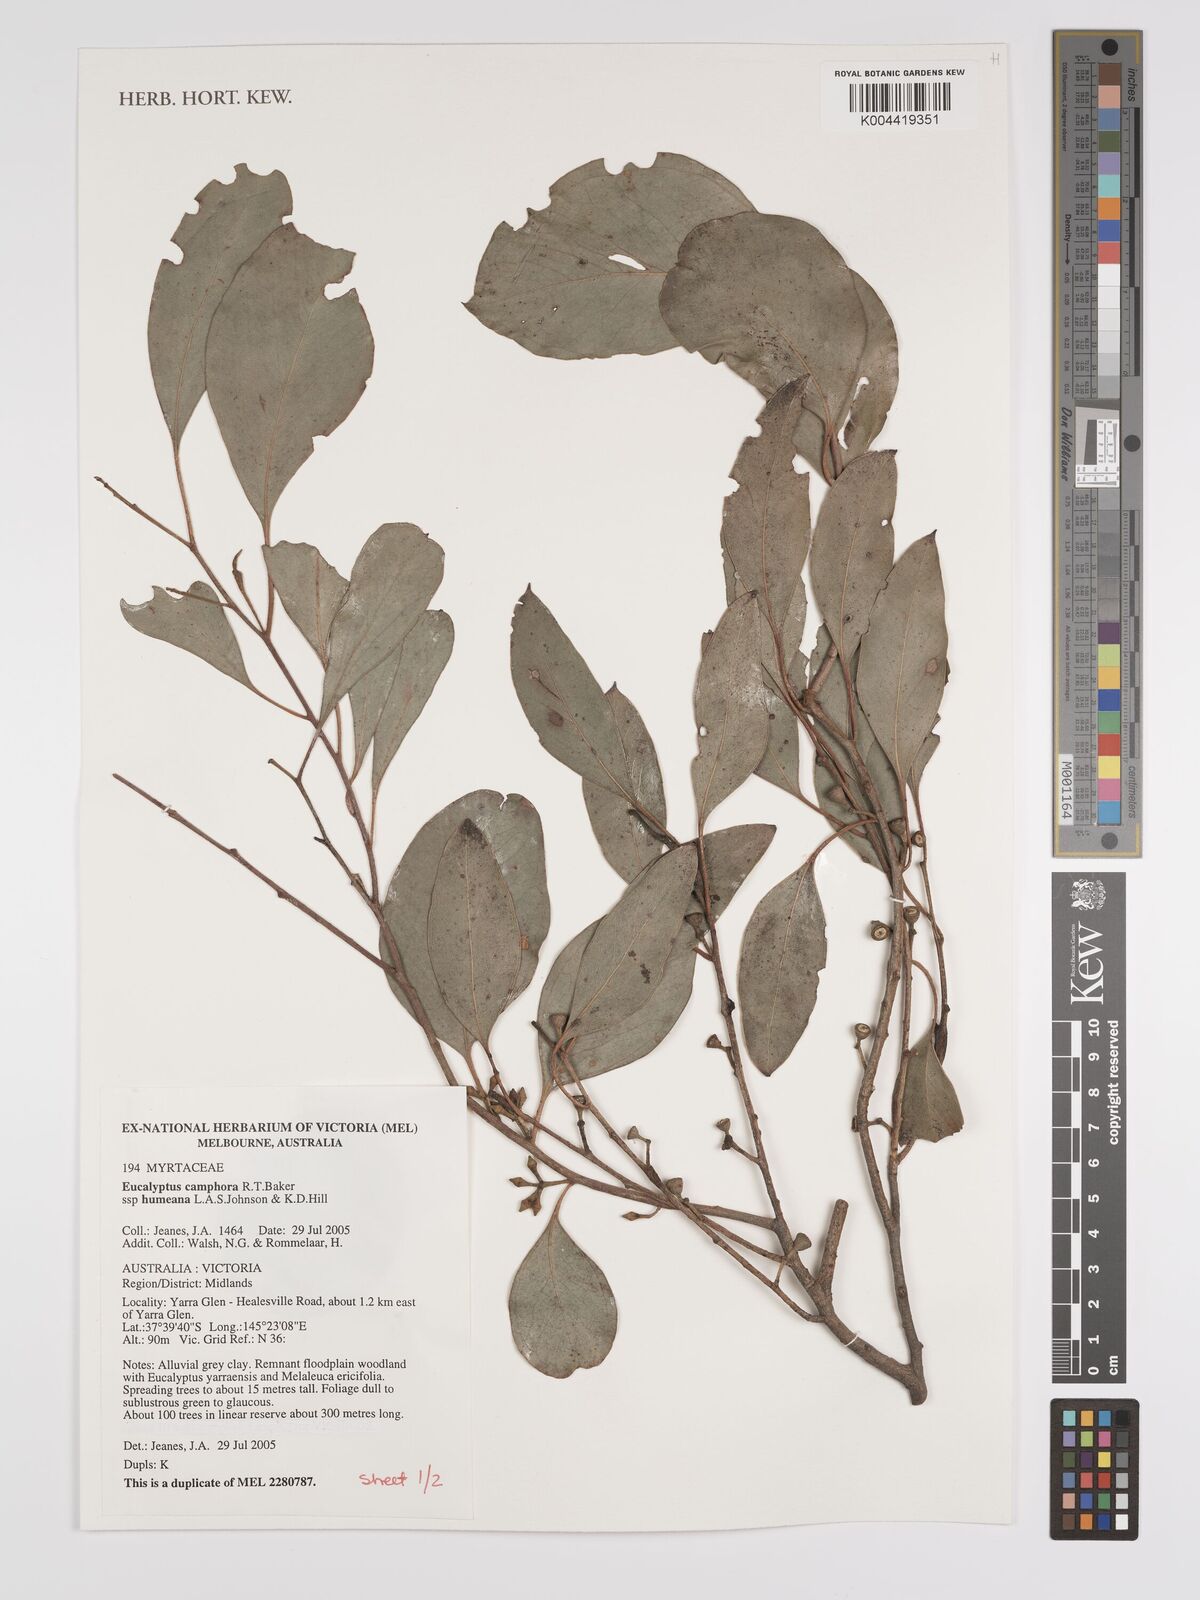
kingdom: Plantae
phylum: Tracheophyta
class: Magnoliopsida
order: Myrtales
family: Myrtaceae
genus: Eucalyptus
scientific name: Eucalyptus camphora
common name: Mountain swamp gum
